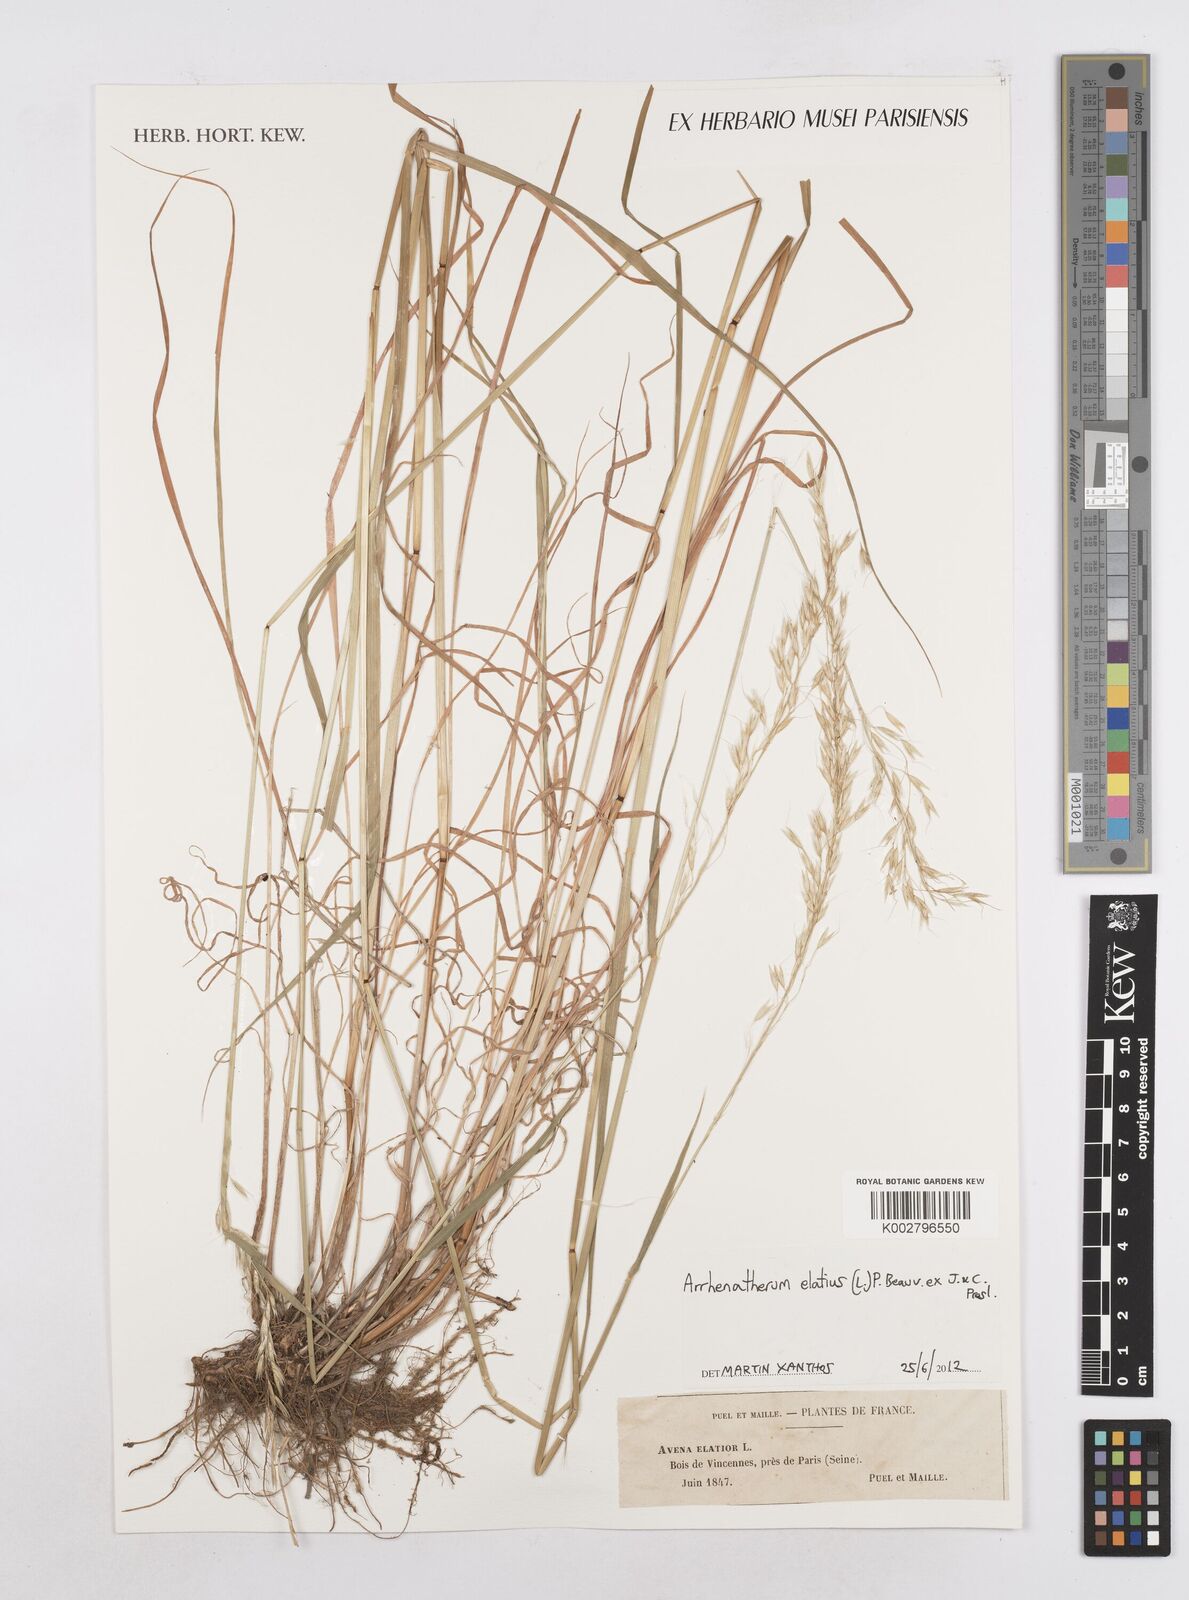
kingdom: Plantae
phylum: Tracheophyta
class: Liliopsida
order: Poales
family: Poaceae
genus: Arrhenatherum
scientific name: Arrhenatherum elatius
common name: Tall oatgrass
